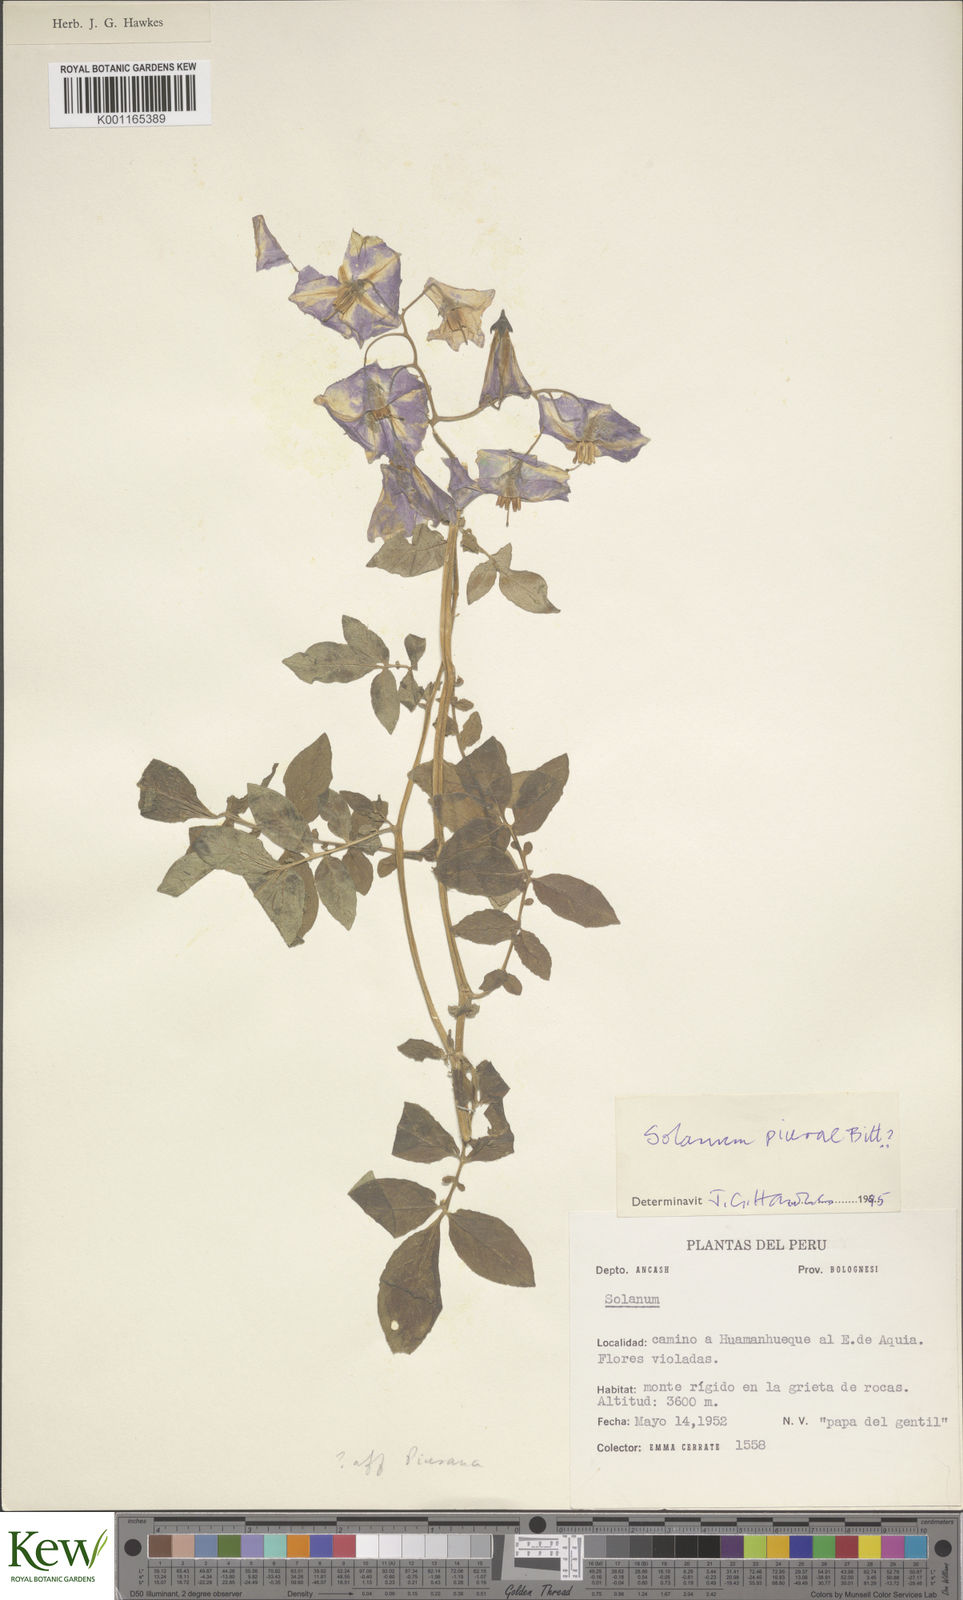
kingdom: Plantae
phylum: Tracheophyta
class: Magnoliopsida
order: Solanales
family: Solanaceae
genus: Solanum
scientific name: Solanum piurae
